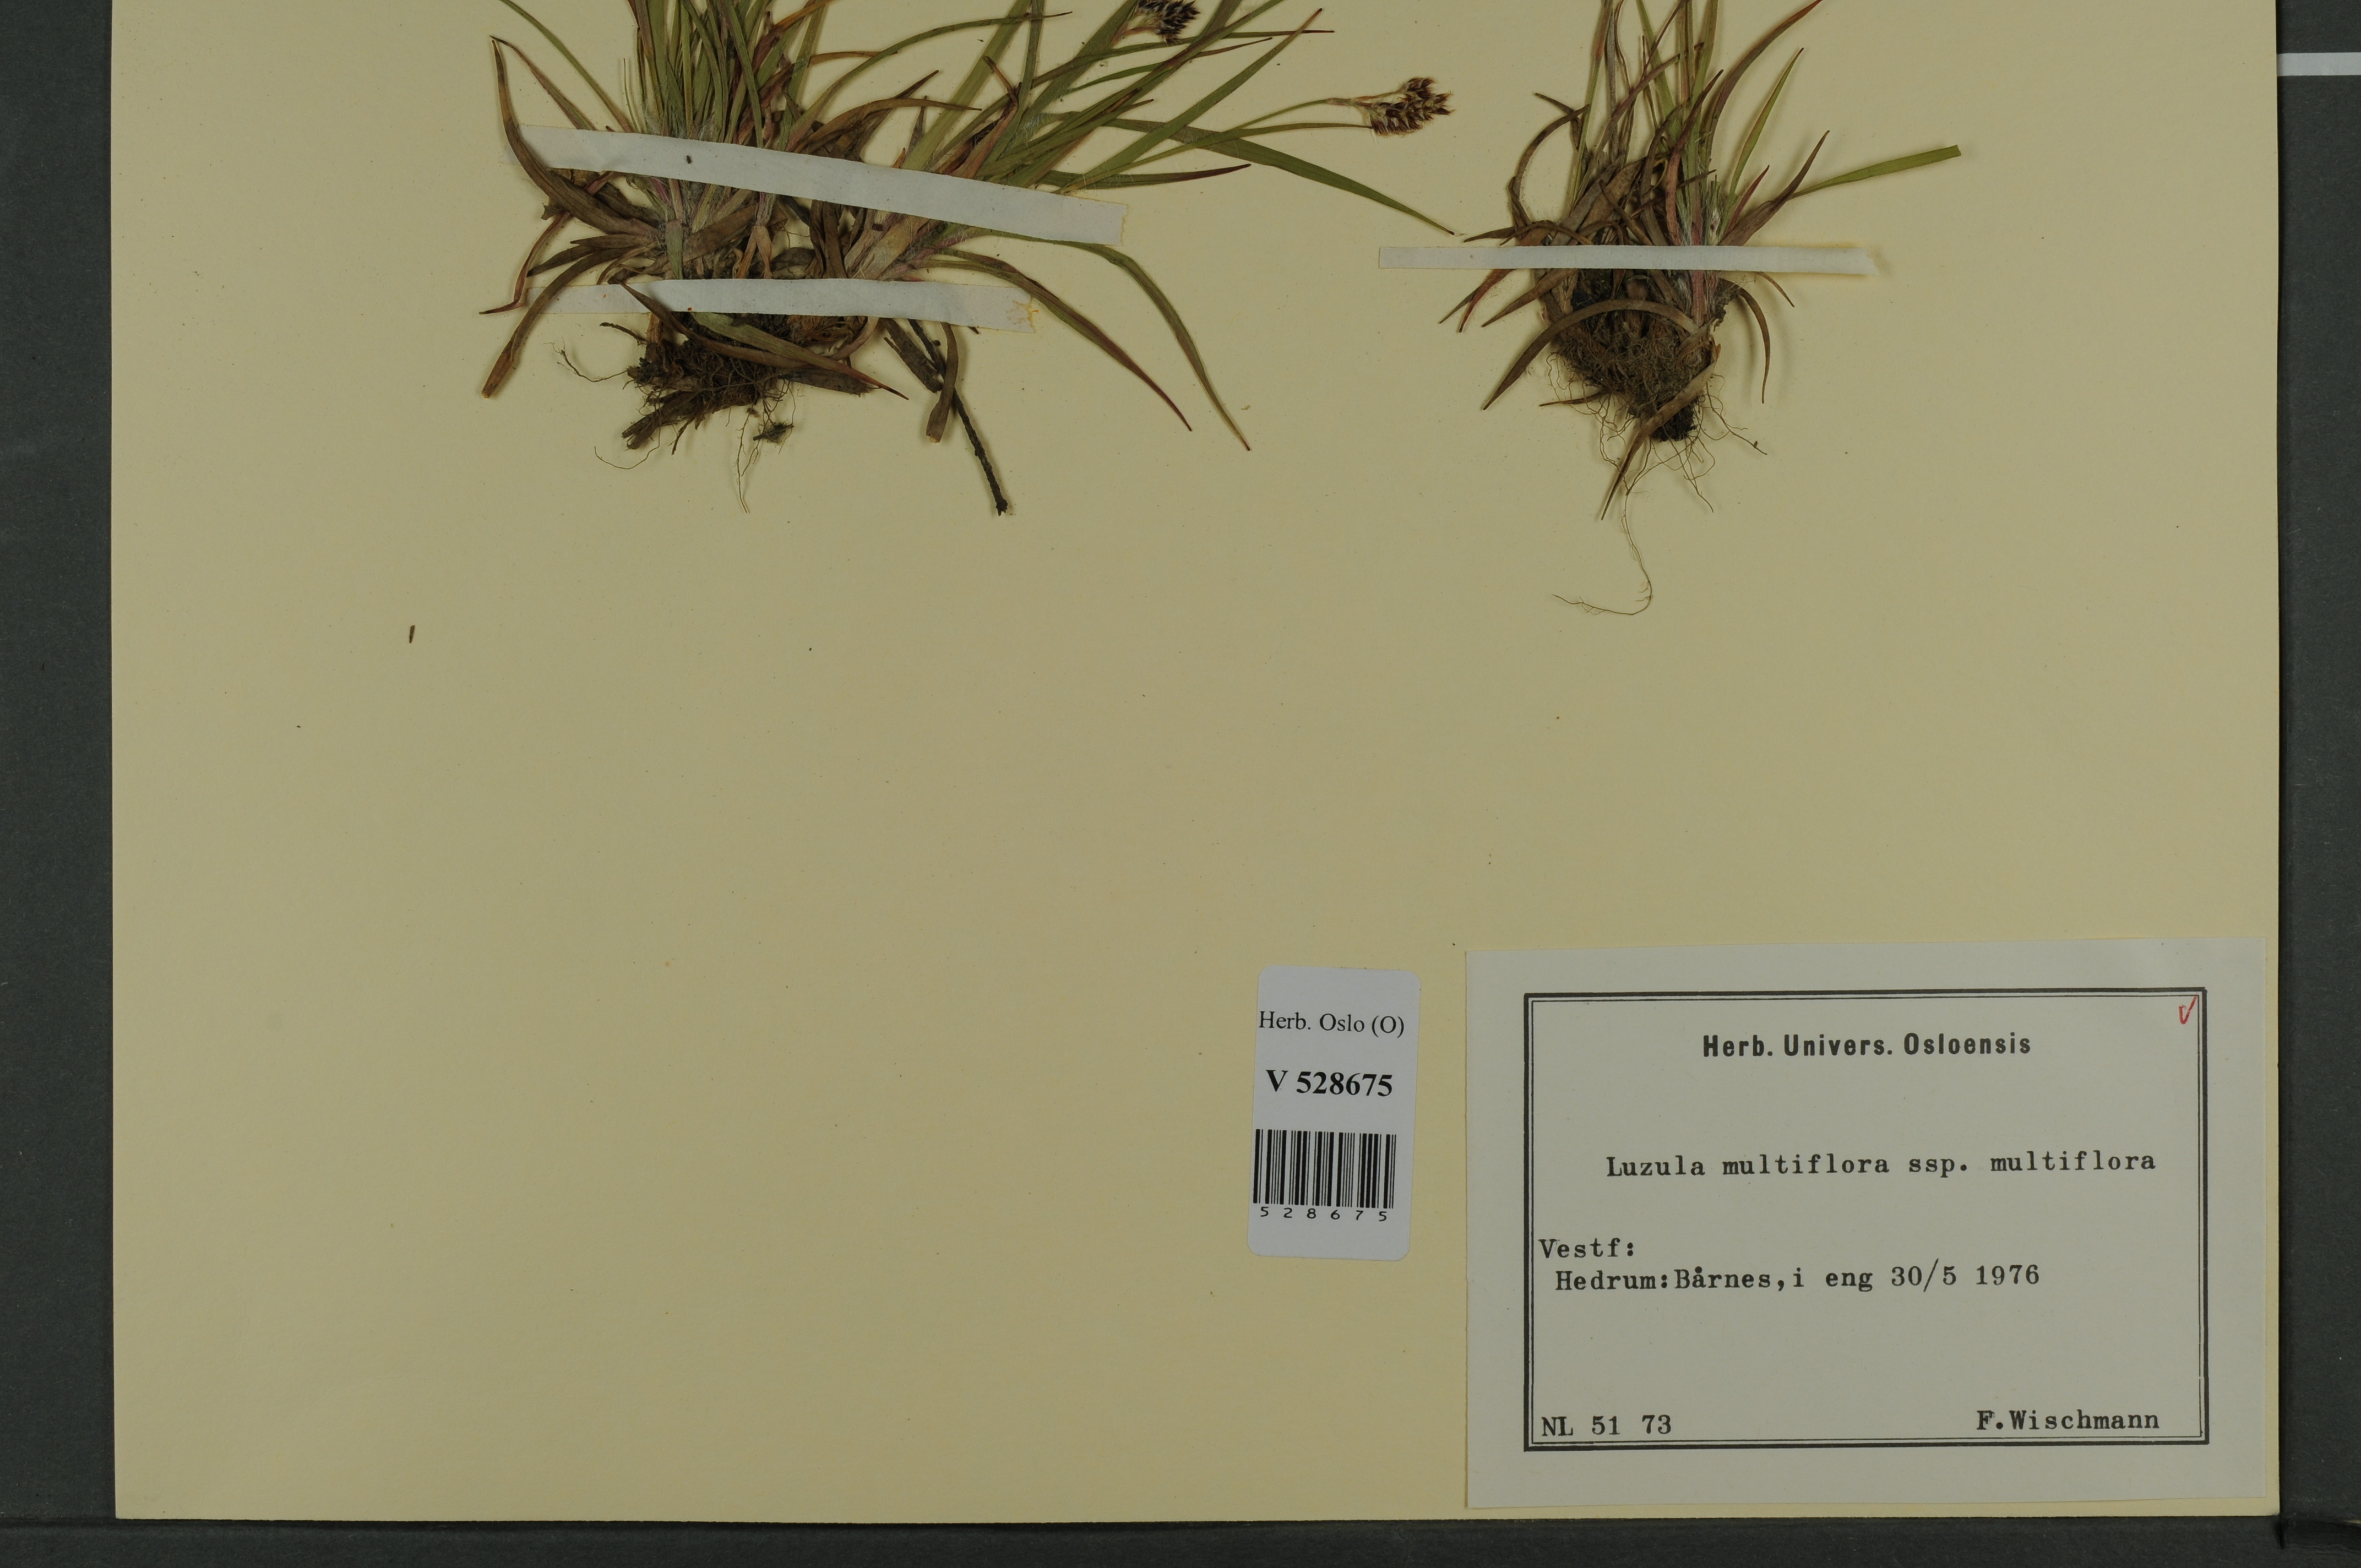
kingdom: Plantae
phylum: Tracheophyta
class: Liliopsida
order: Poales
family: Juncaceae
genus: Luzula
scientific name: Luzula multiflora
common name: Heath wood-rush
